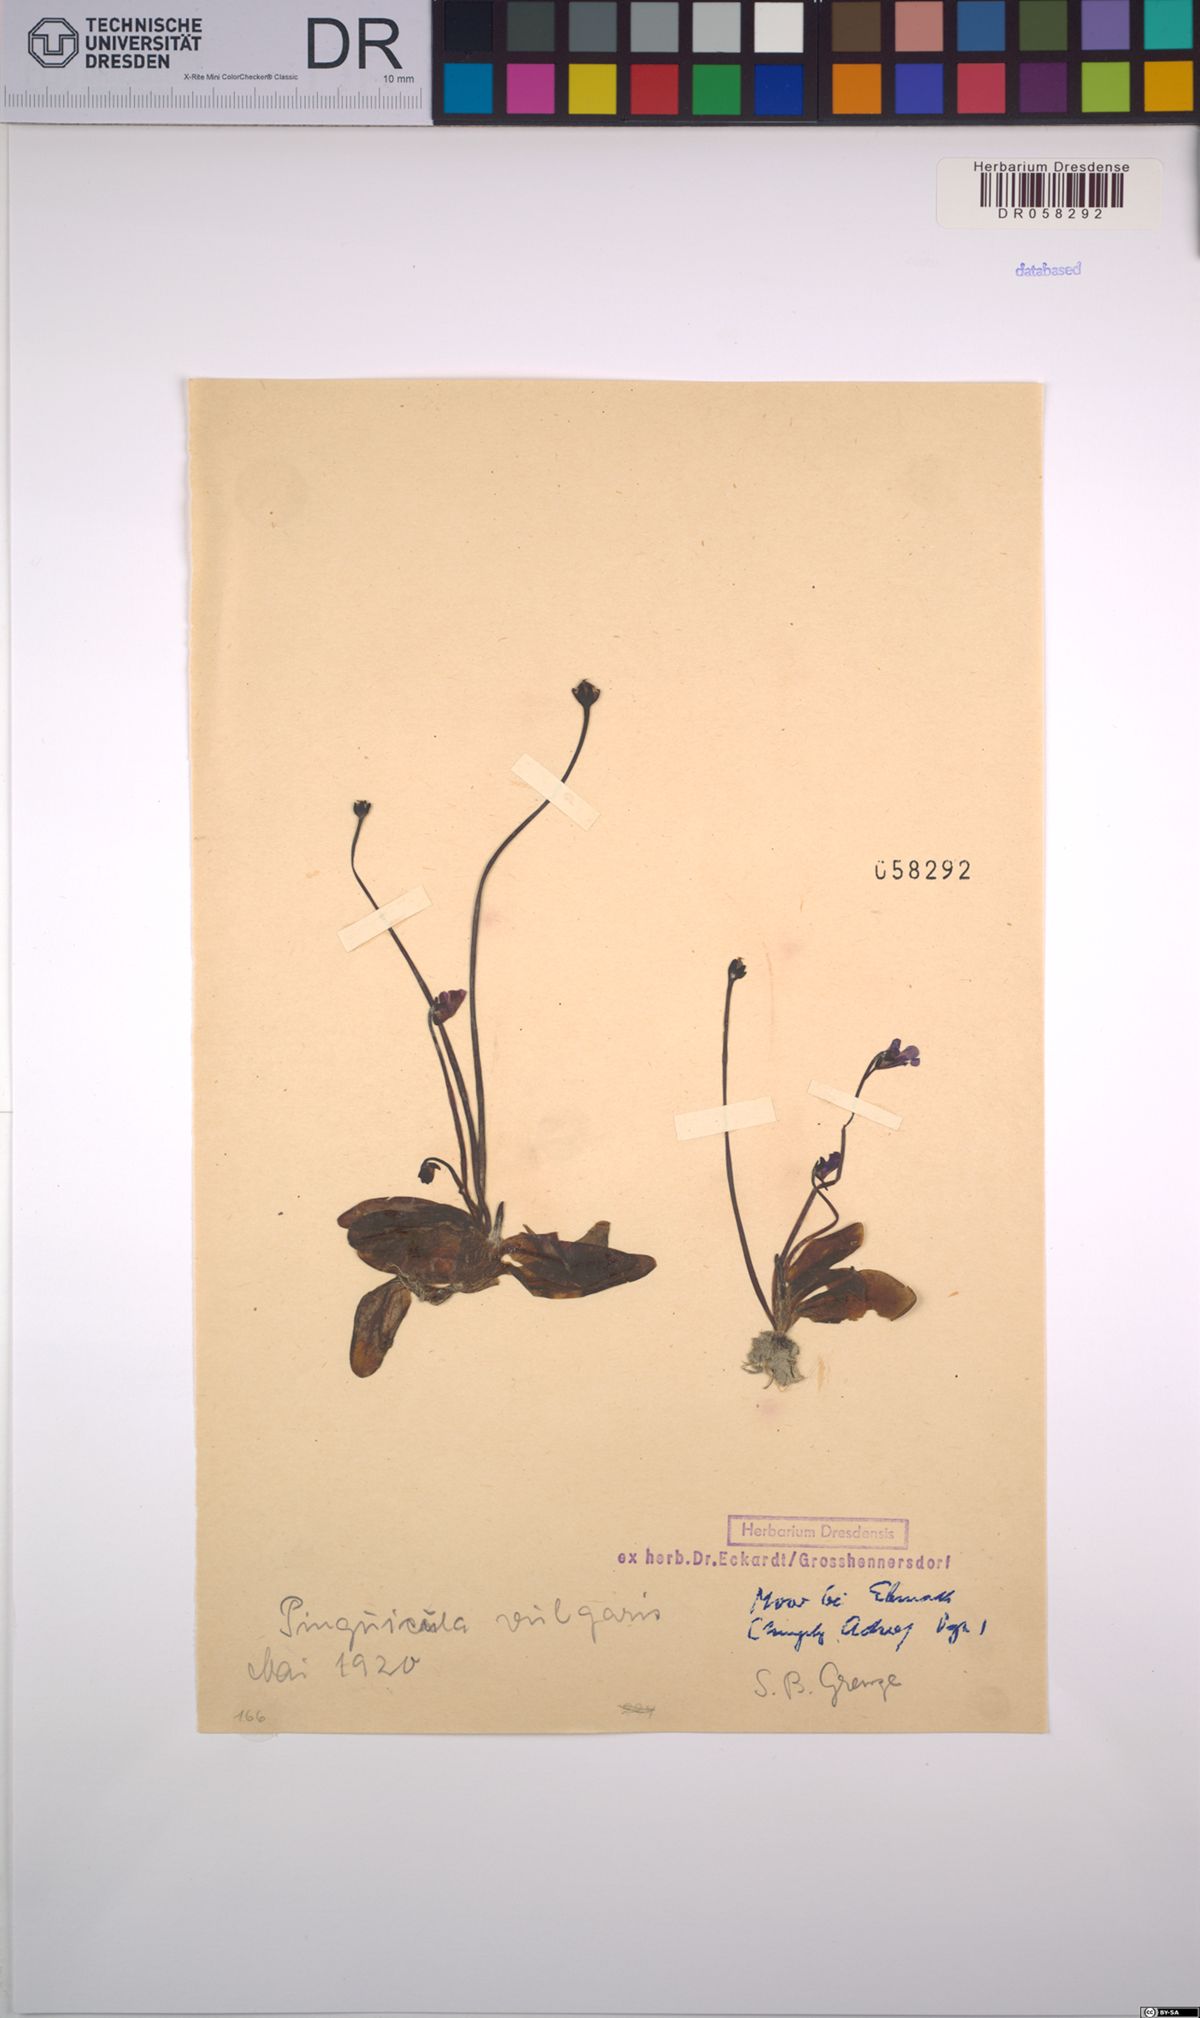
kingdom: Plantae
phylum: Tracheophyta
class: Magnoliopsida
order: Lamiales
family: Lentibulariaceae
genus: Pinguicula
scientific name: Pinguicula vulgaris
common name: Common butterwort
